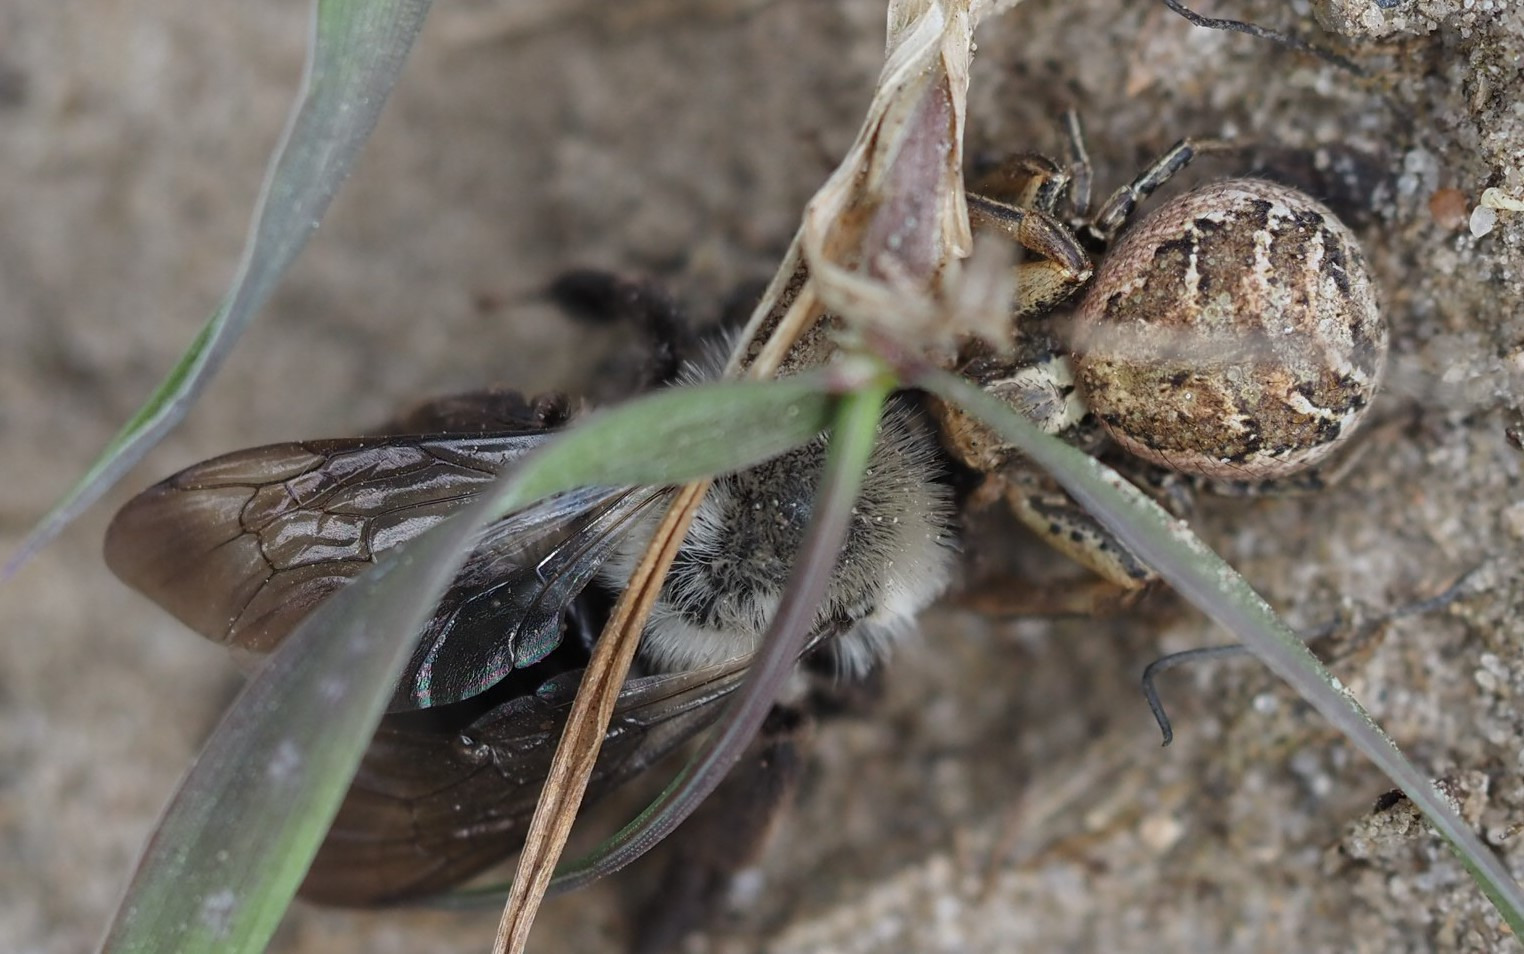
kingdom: Animalia
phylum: Arthropoda
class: Arachnida
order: Araneae
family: Thomisidae
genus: Xysticus
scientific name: Xysticus
